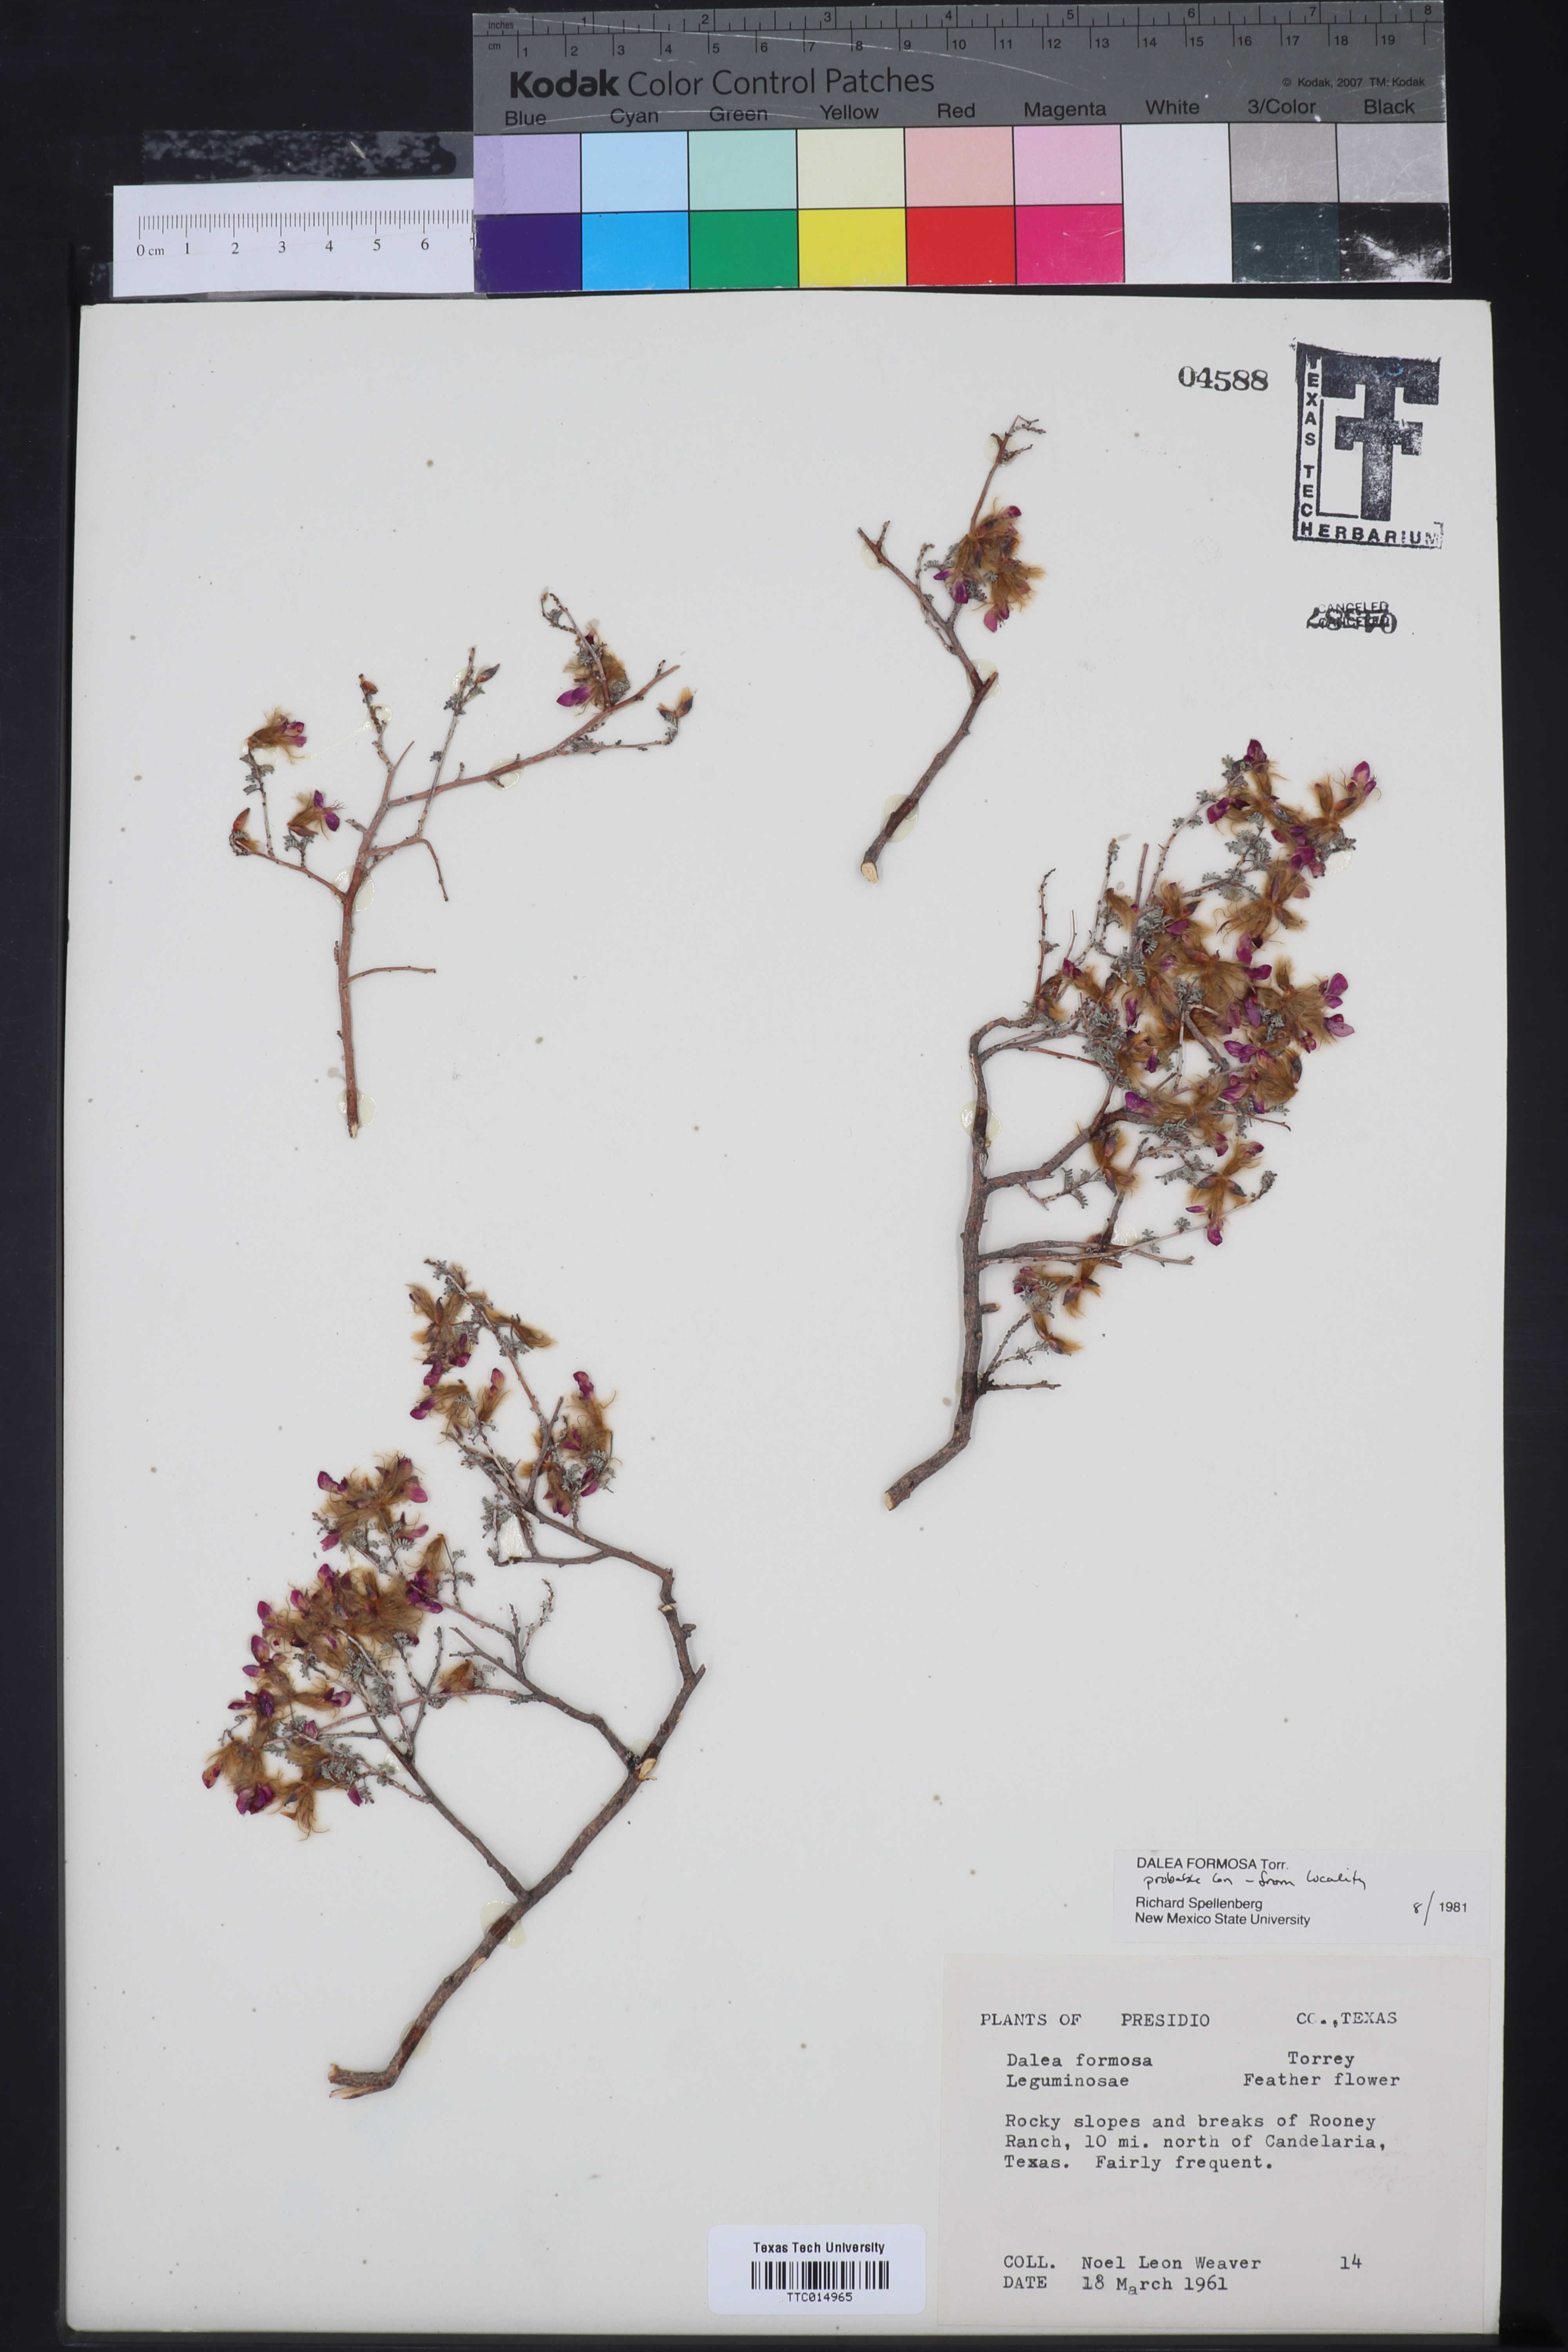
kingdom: Plantae
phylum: Tracheophyta
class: Magnoliopsida
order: Fabales
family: Fabaceae
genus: Dalea
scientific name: Dalea formosa
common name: Feather-plume dalea
